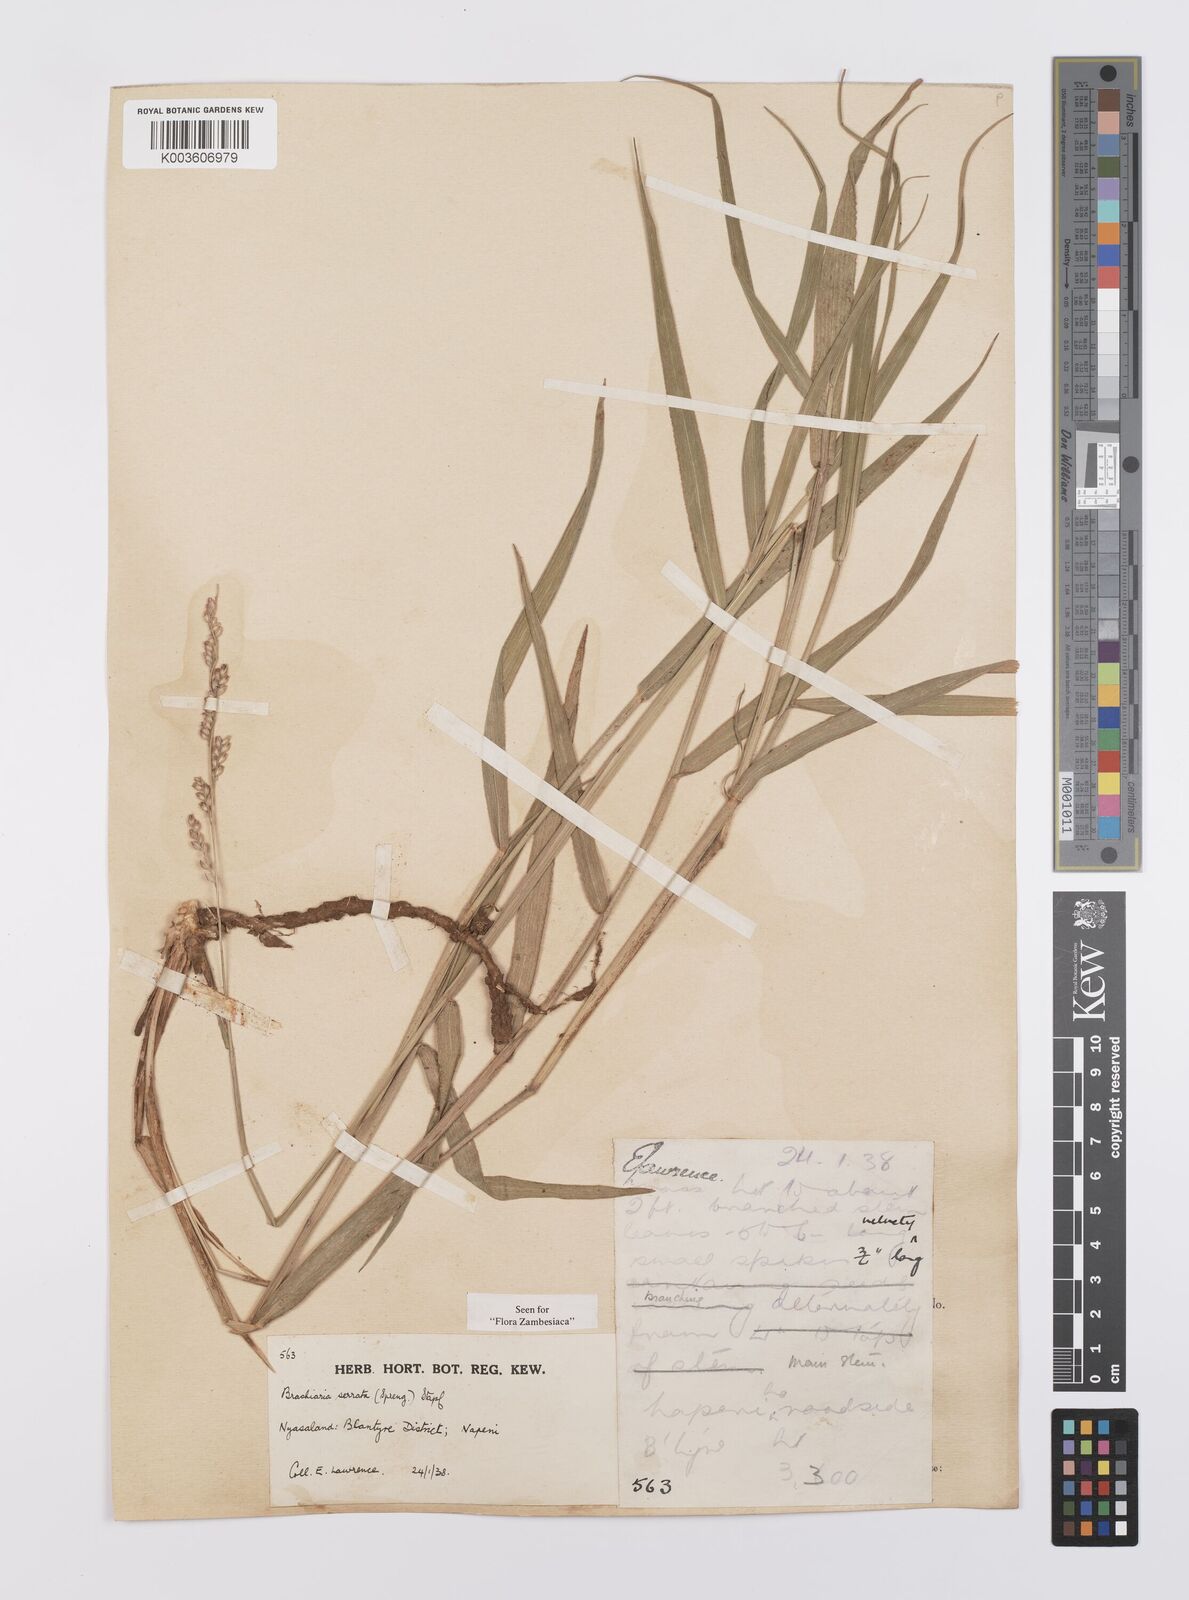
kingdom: Plantae
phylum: Tracheophyta
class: Liliopsida
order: Poales
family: Poaceae
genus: Urochloa
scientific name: Urochloa serrata
